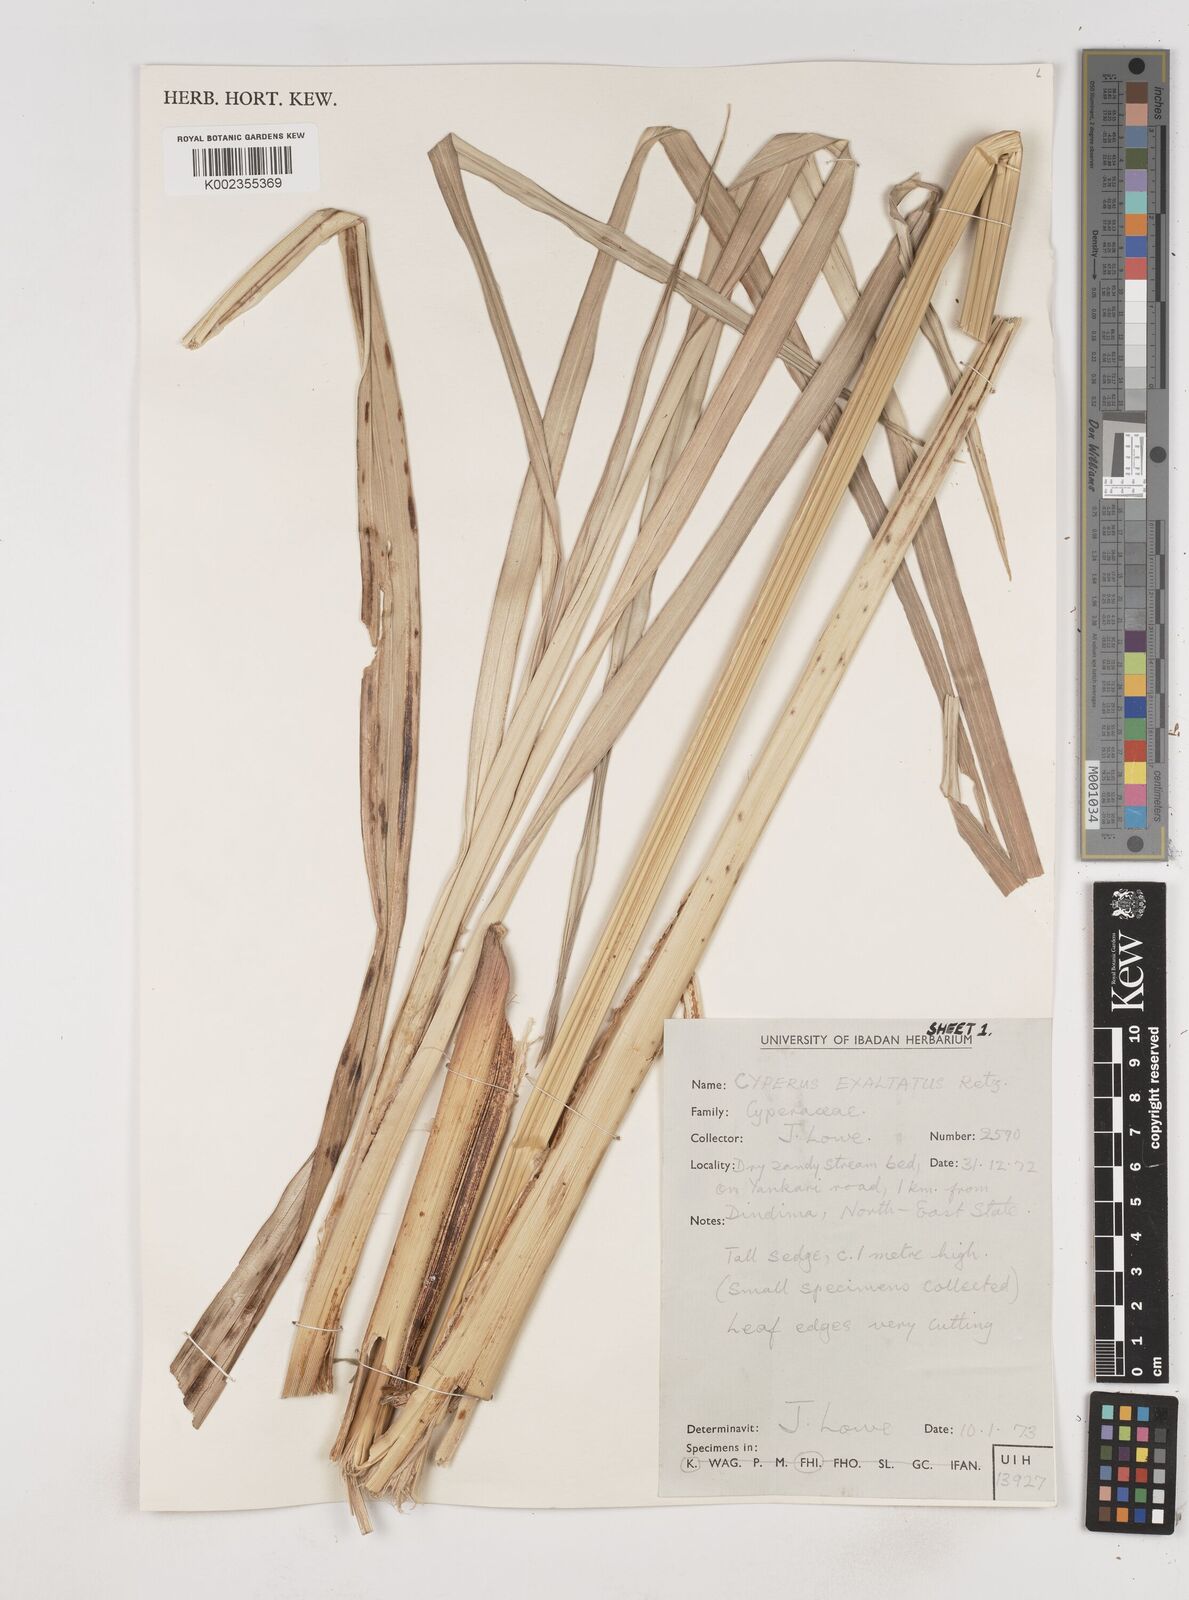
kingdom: Plantae
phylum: Tracheophyta
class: Liliopsida
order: Poales
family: Cyperaceae
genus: Cyperus
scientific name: Cyperus exaltatus
